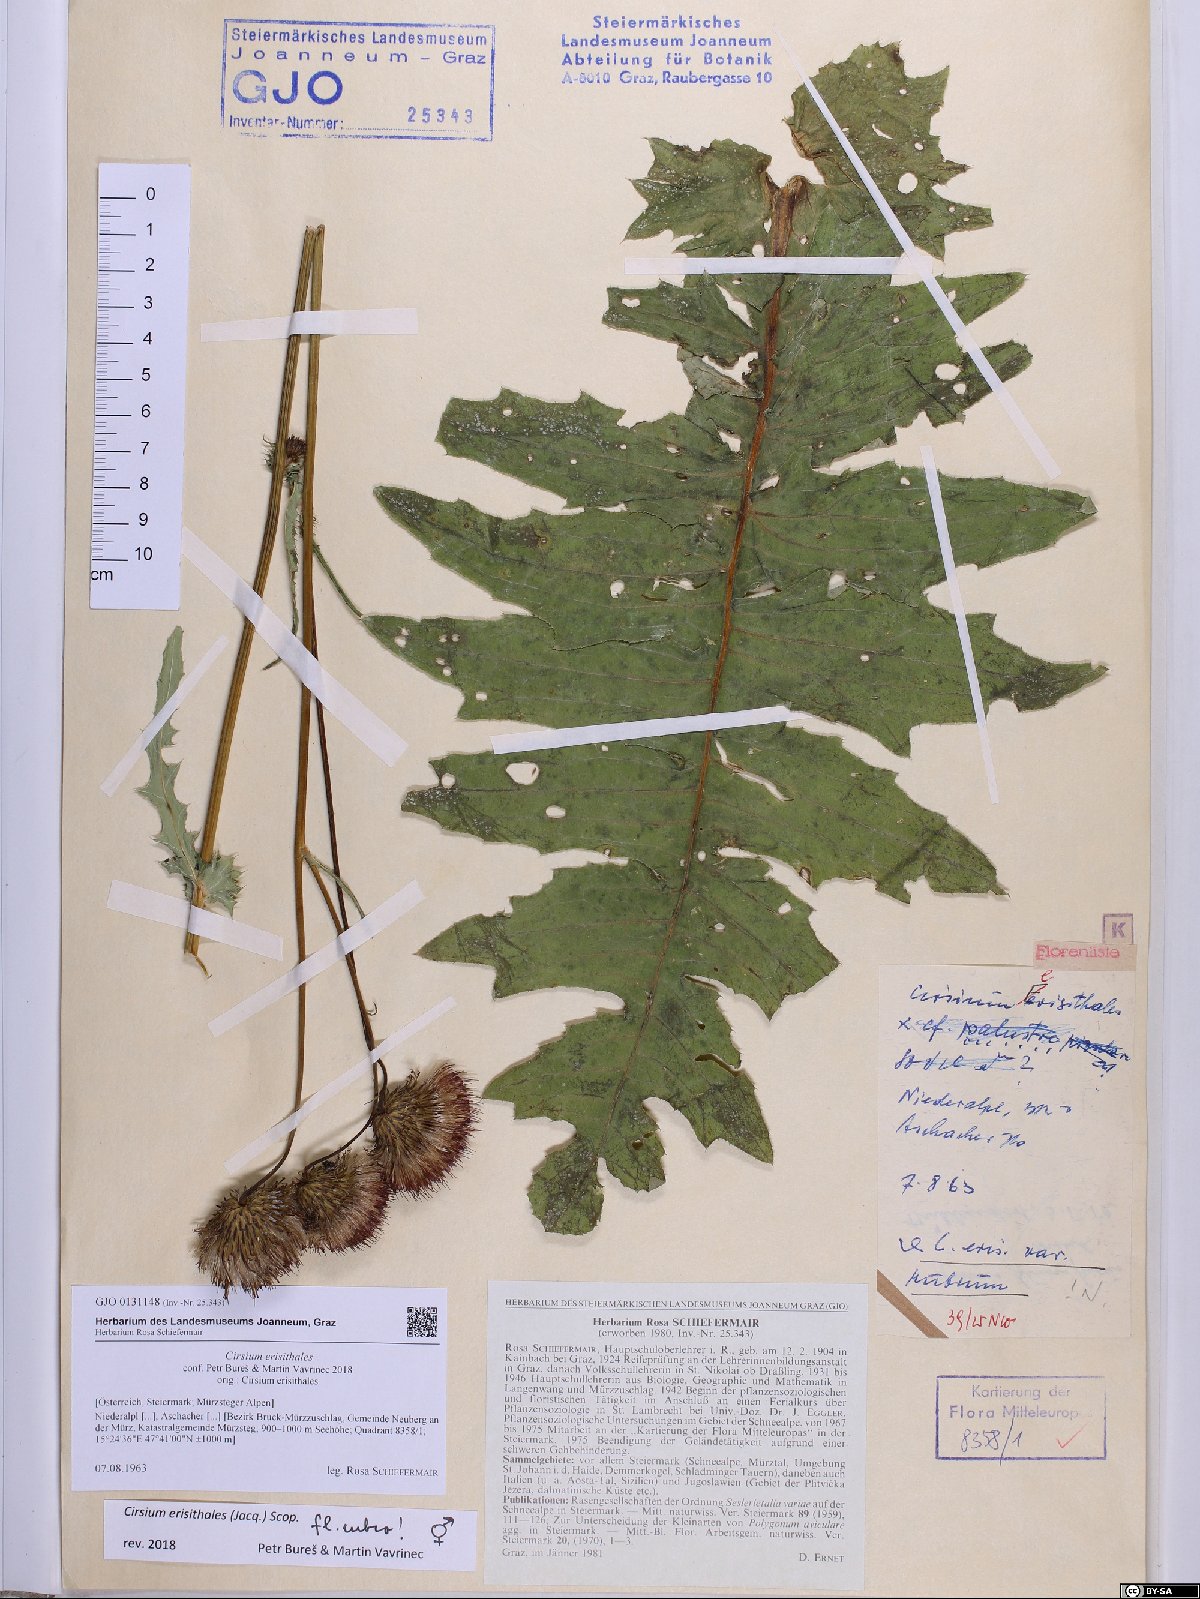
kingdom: Plantae
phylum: Tracheophyta
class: Magnoliopsida
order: Asterales
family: Asteraceae
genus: Cirsium
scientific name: Cirsium erisithales
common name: Yellow thistle
